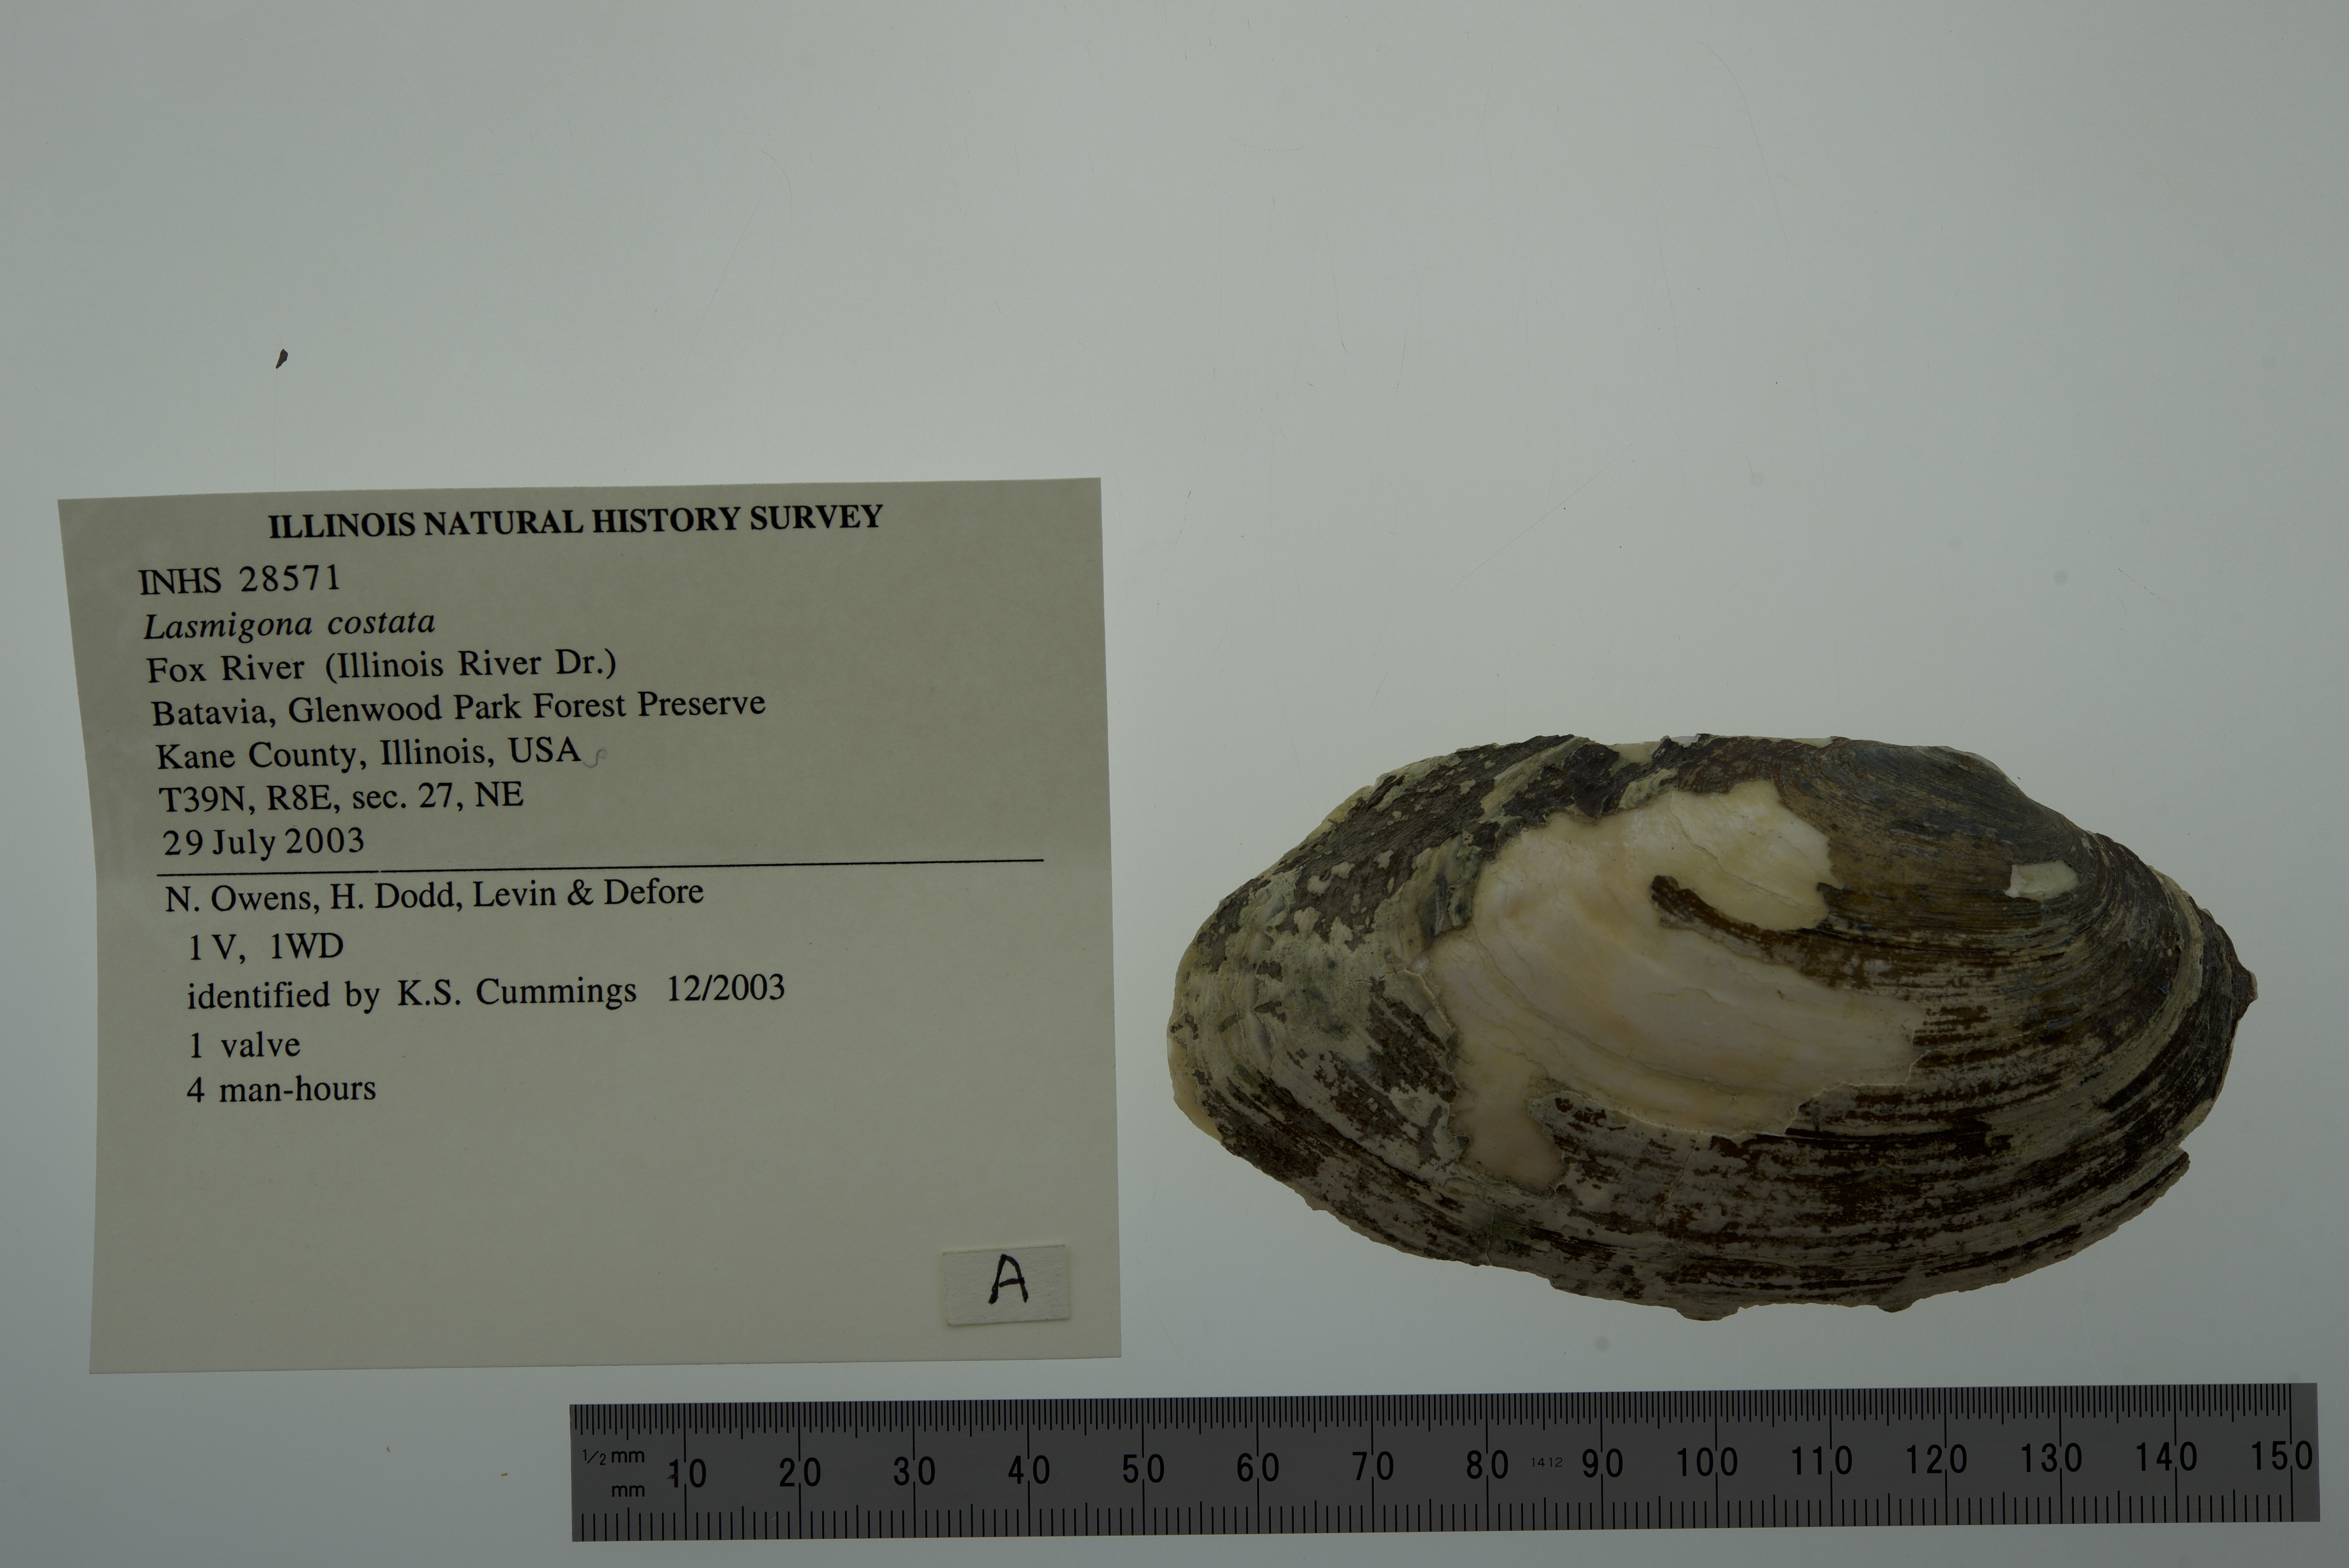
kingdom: Animalia
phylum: Mollusca
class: Bivalvia
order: Unionida
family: Unionidae
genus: Lasmigona
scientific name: Lasmigona costata
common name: Flutedshell
